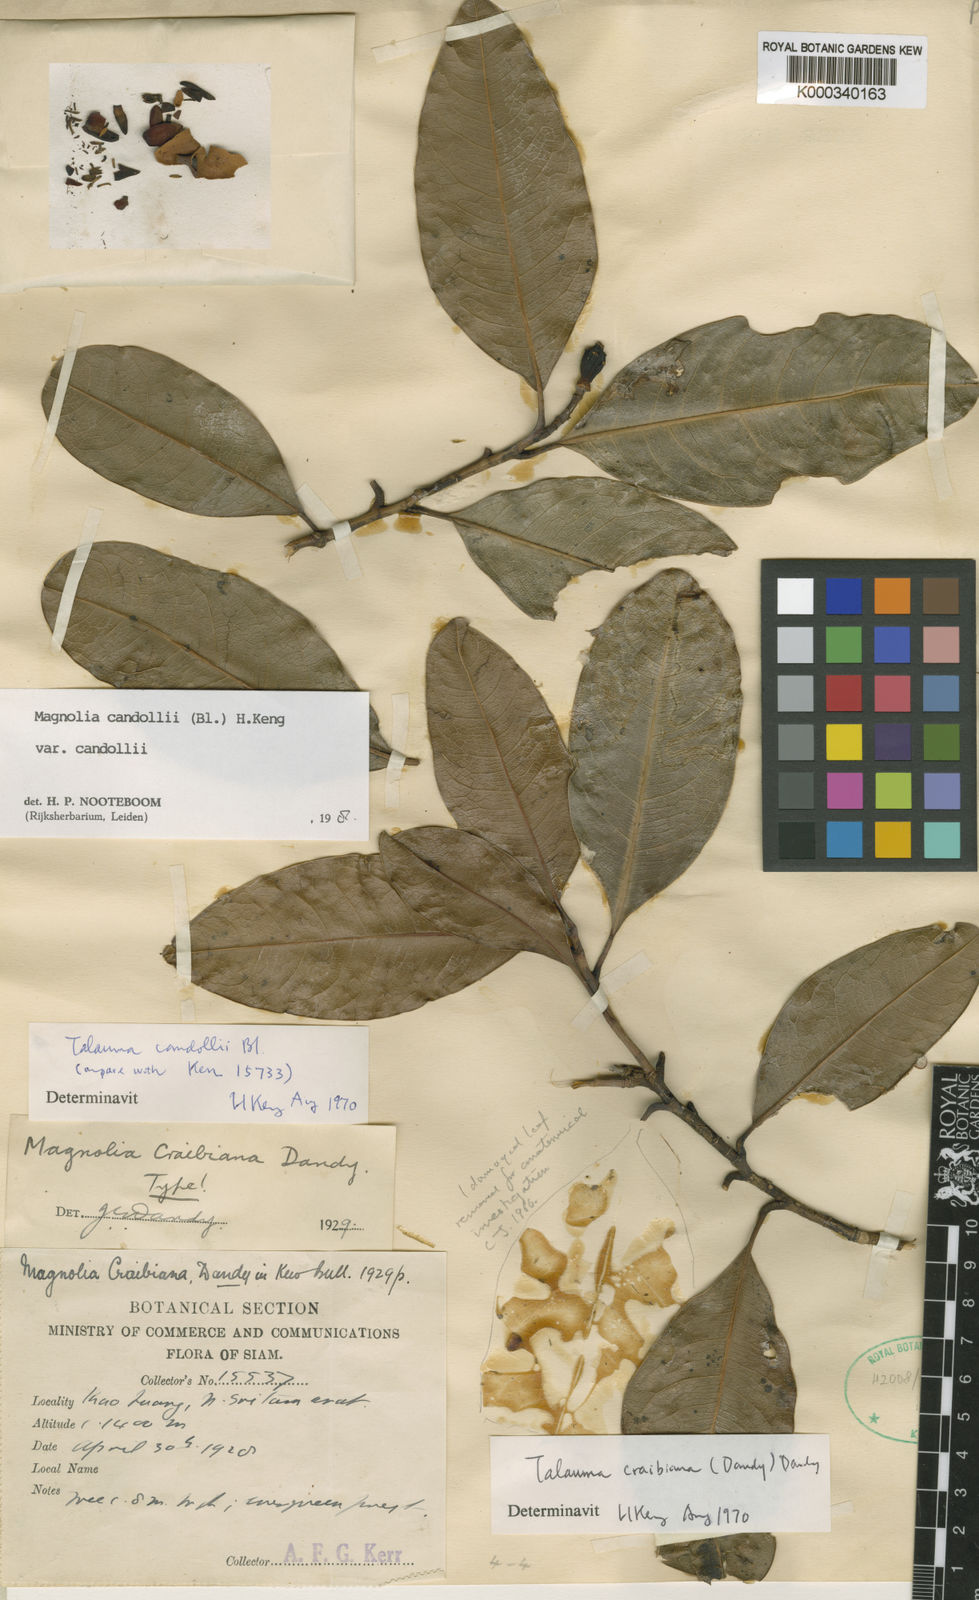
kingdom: Plantae
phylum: Tracheophyta
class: Magnoliopsida
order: Magnoliales
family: Magnoliaceae
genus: Magnolia
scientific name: Magnolia liliifera
